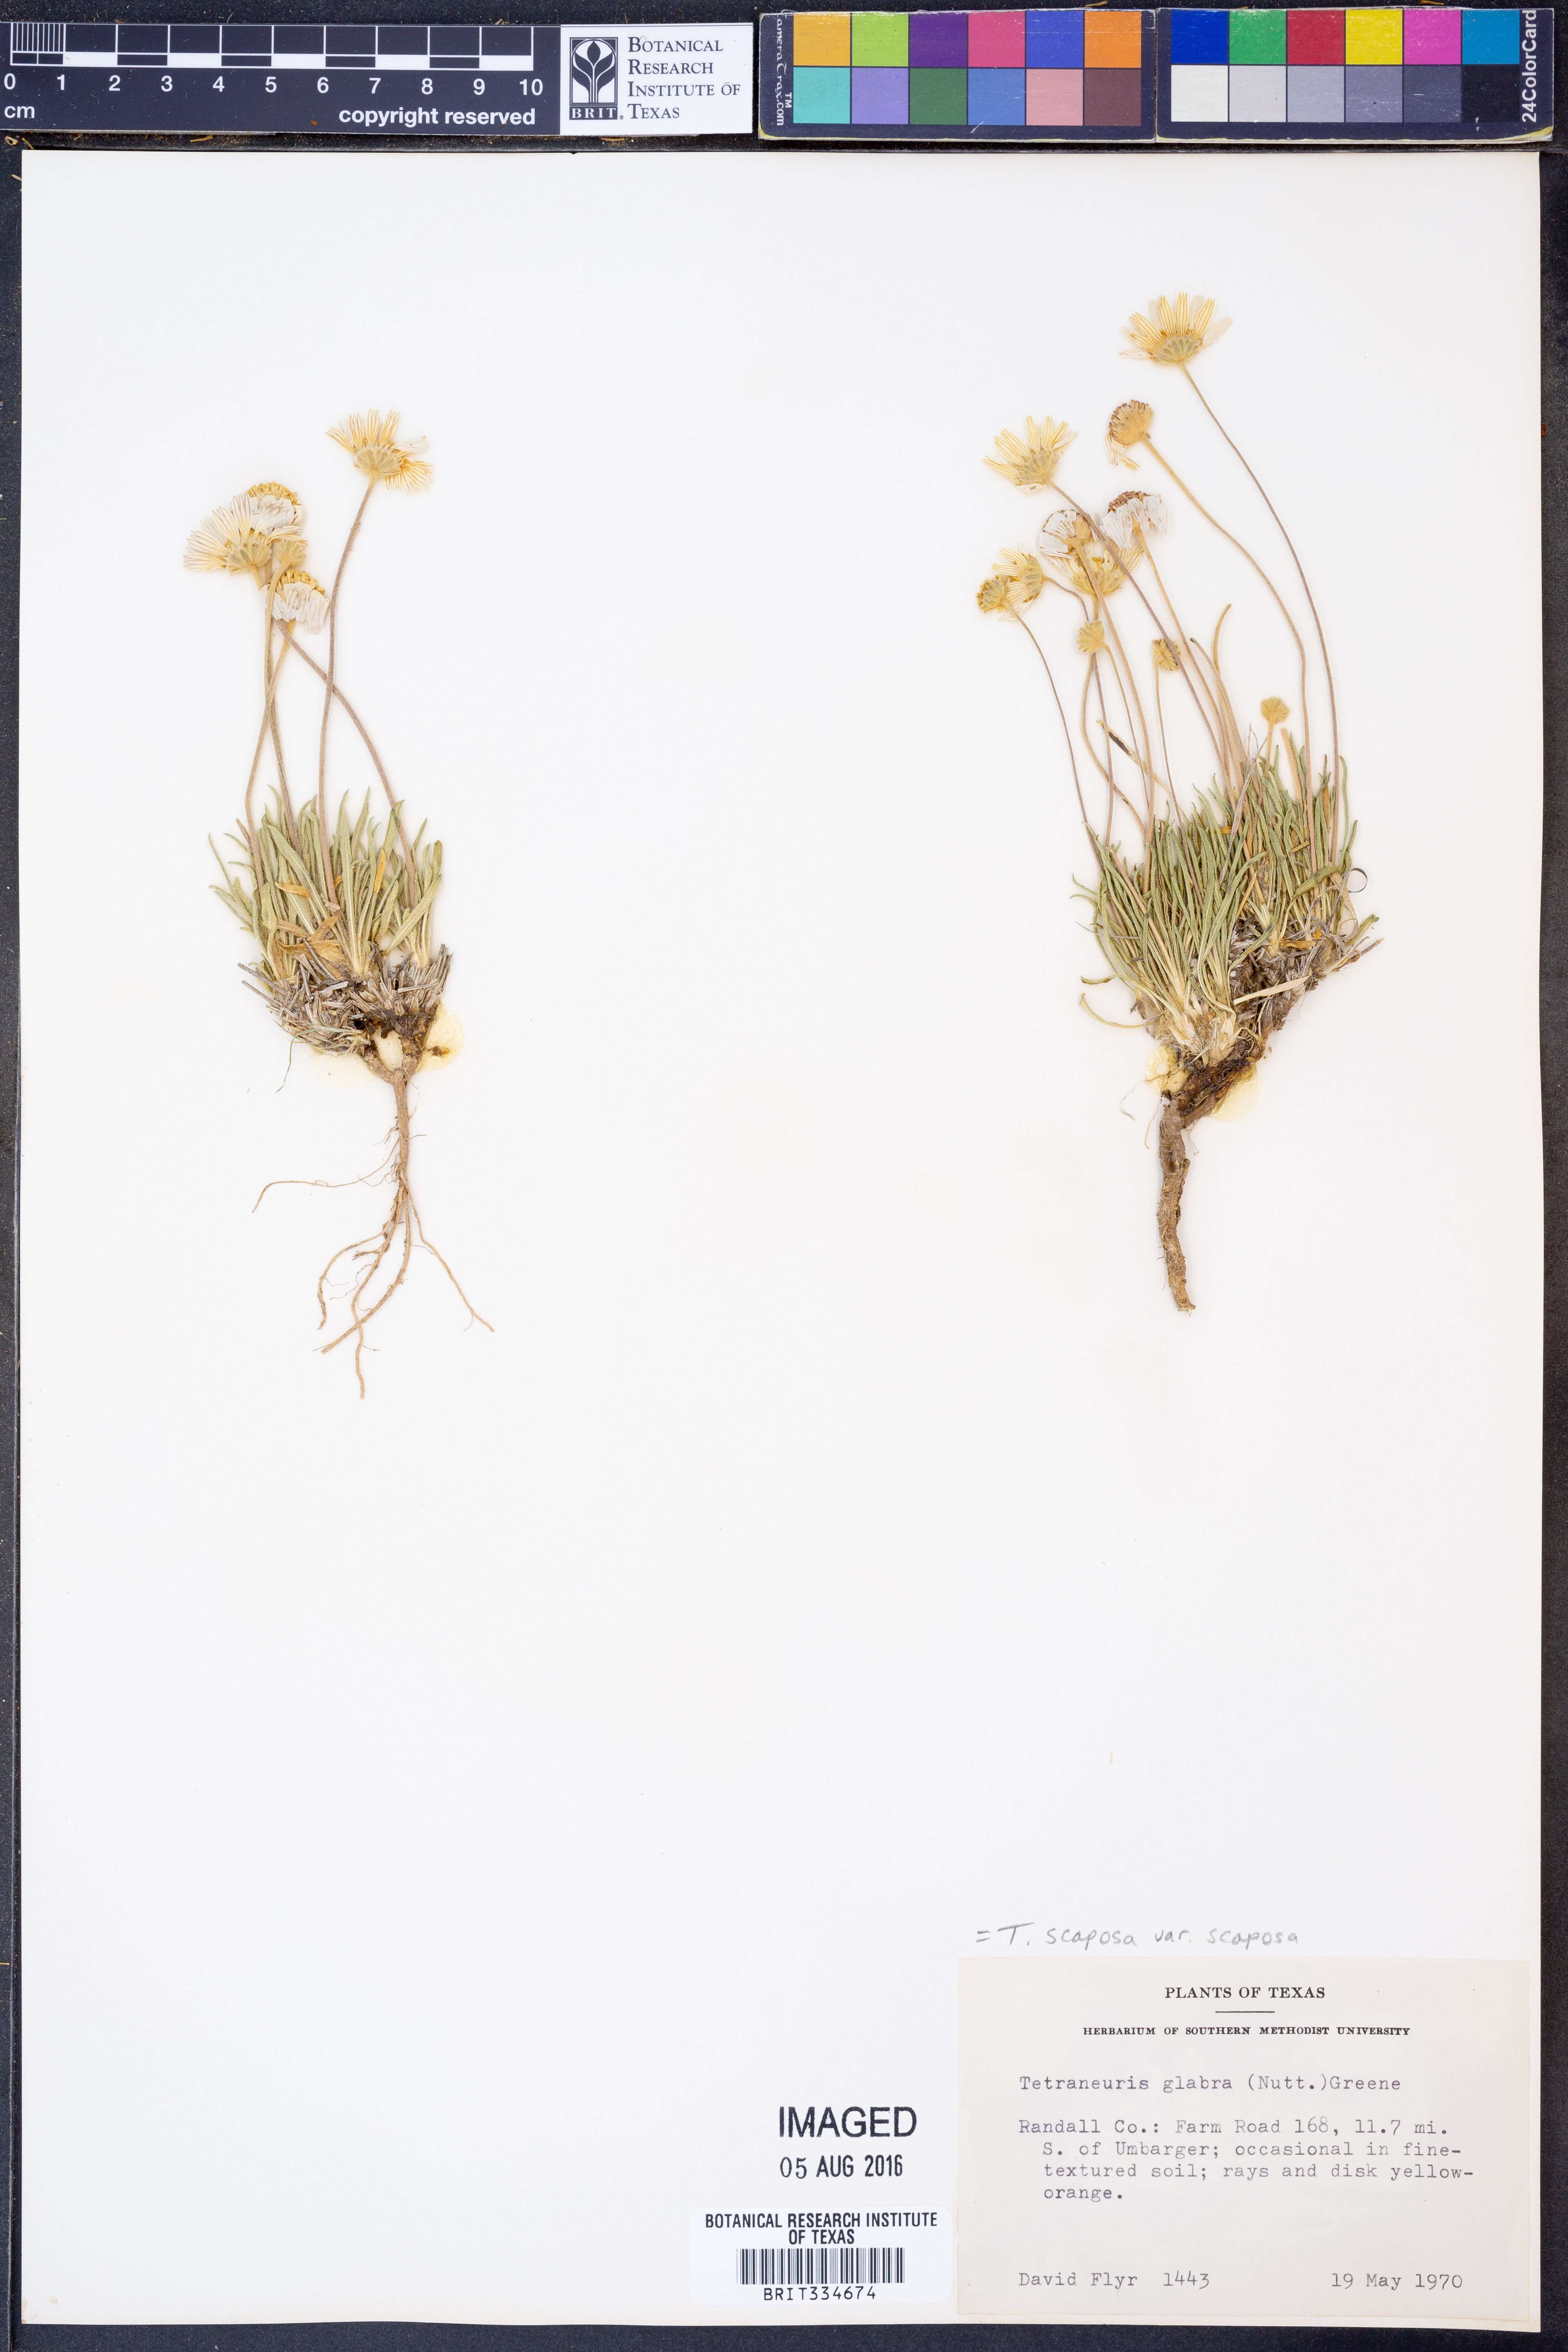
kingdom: Plantae
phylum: Tracheophyta
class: Magnoliopsida
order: Asterales
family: Asteraceae
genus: Tetraneuris
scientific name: Tetraneuris scaposa
